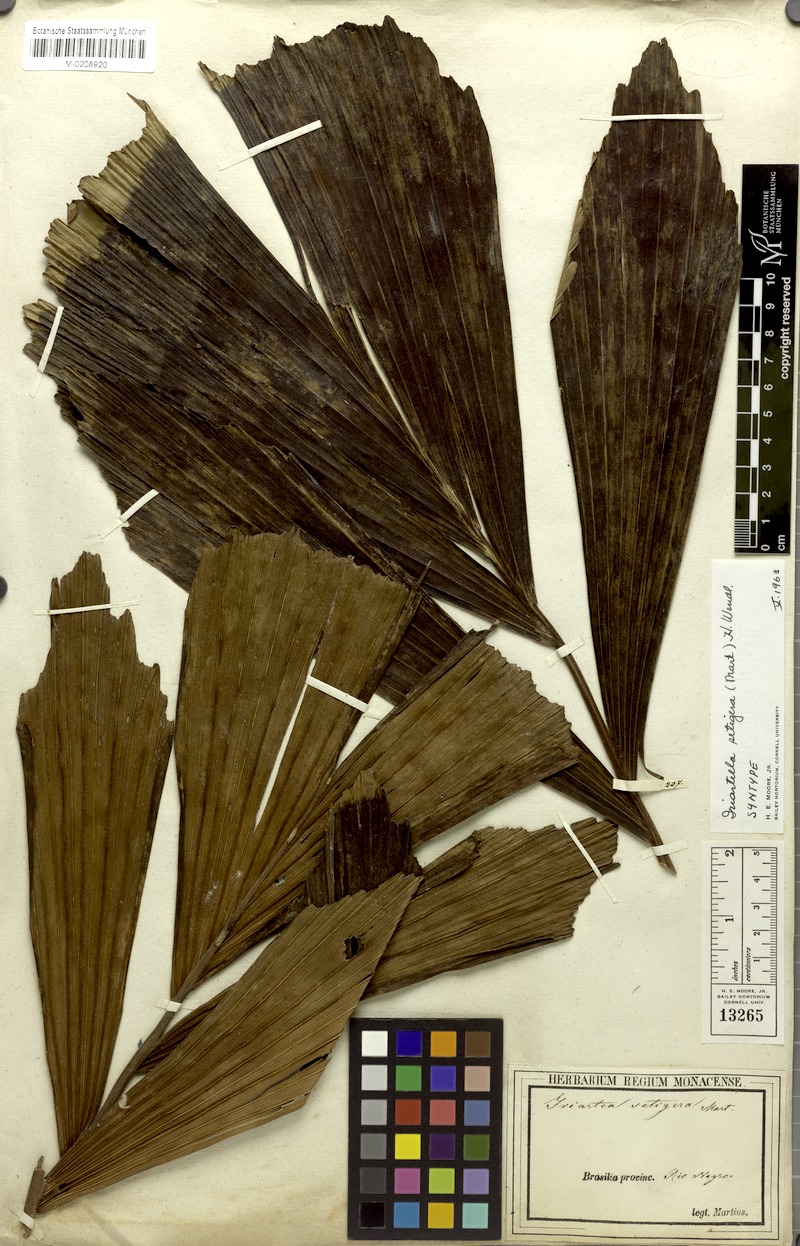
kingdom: Plantae
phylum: Tracheophyta
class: Liliopsida
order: Arecales
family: Arecaceae
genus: Iriartella
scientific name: Iriartella setigera
